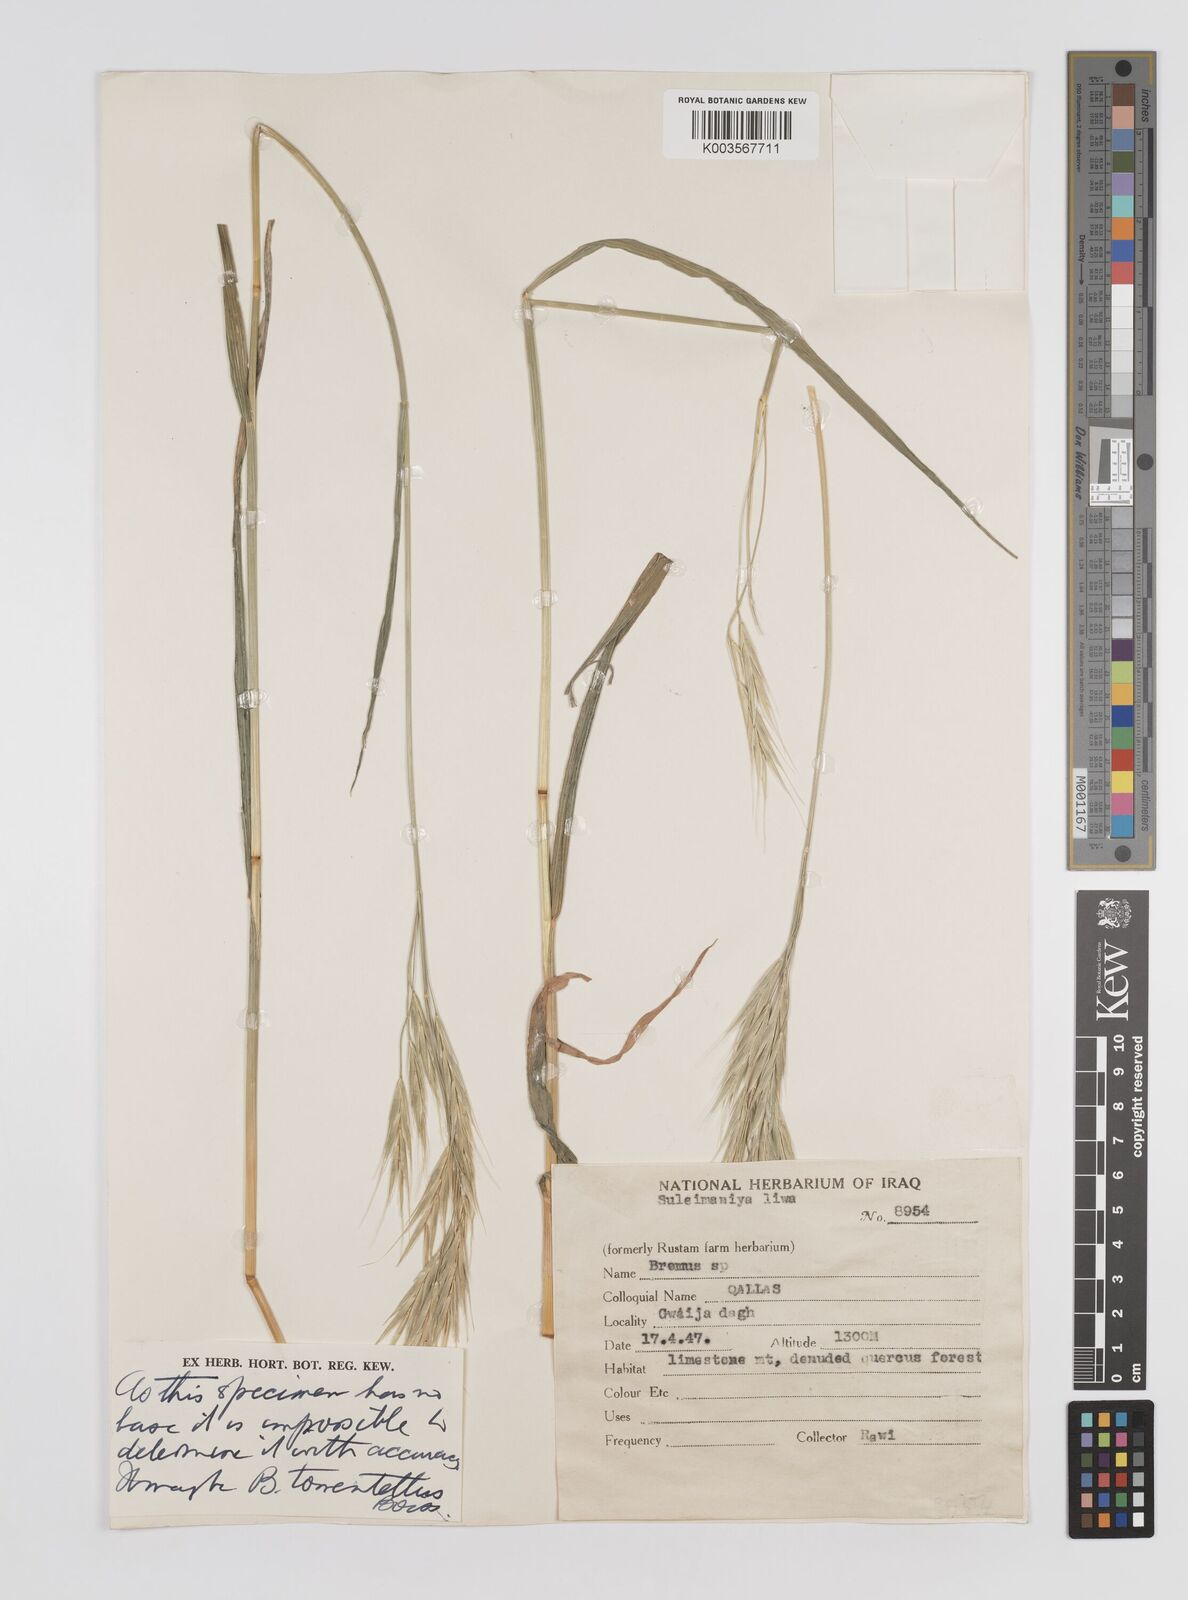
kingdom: Plantae
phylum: Tracheophyta
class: Liliopsida
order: Poales
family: Poaceae
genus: Bromus
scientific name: Bromus
